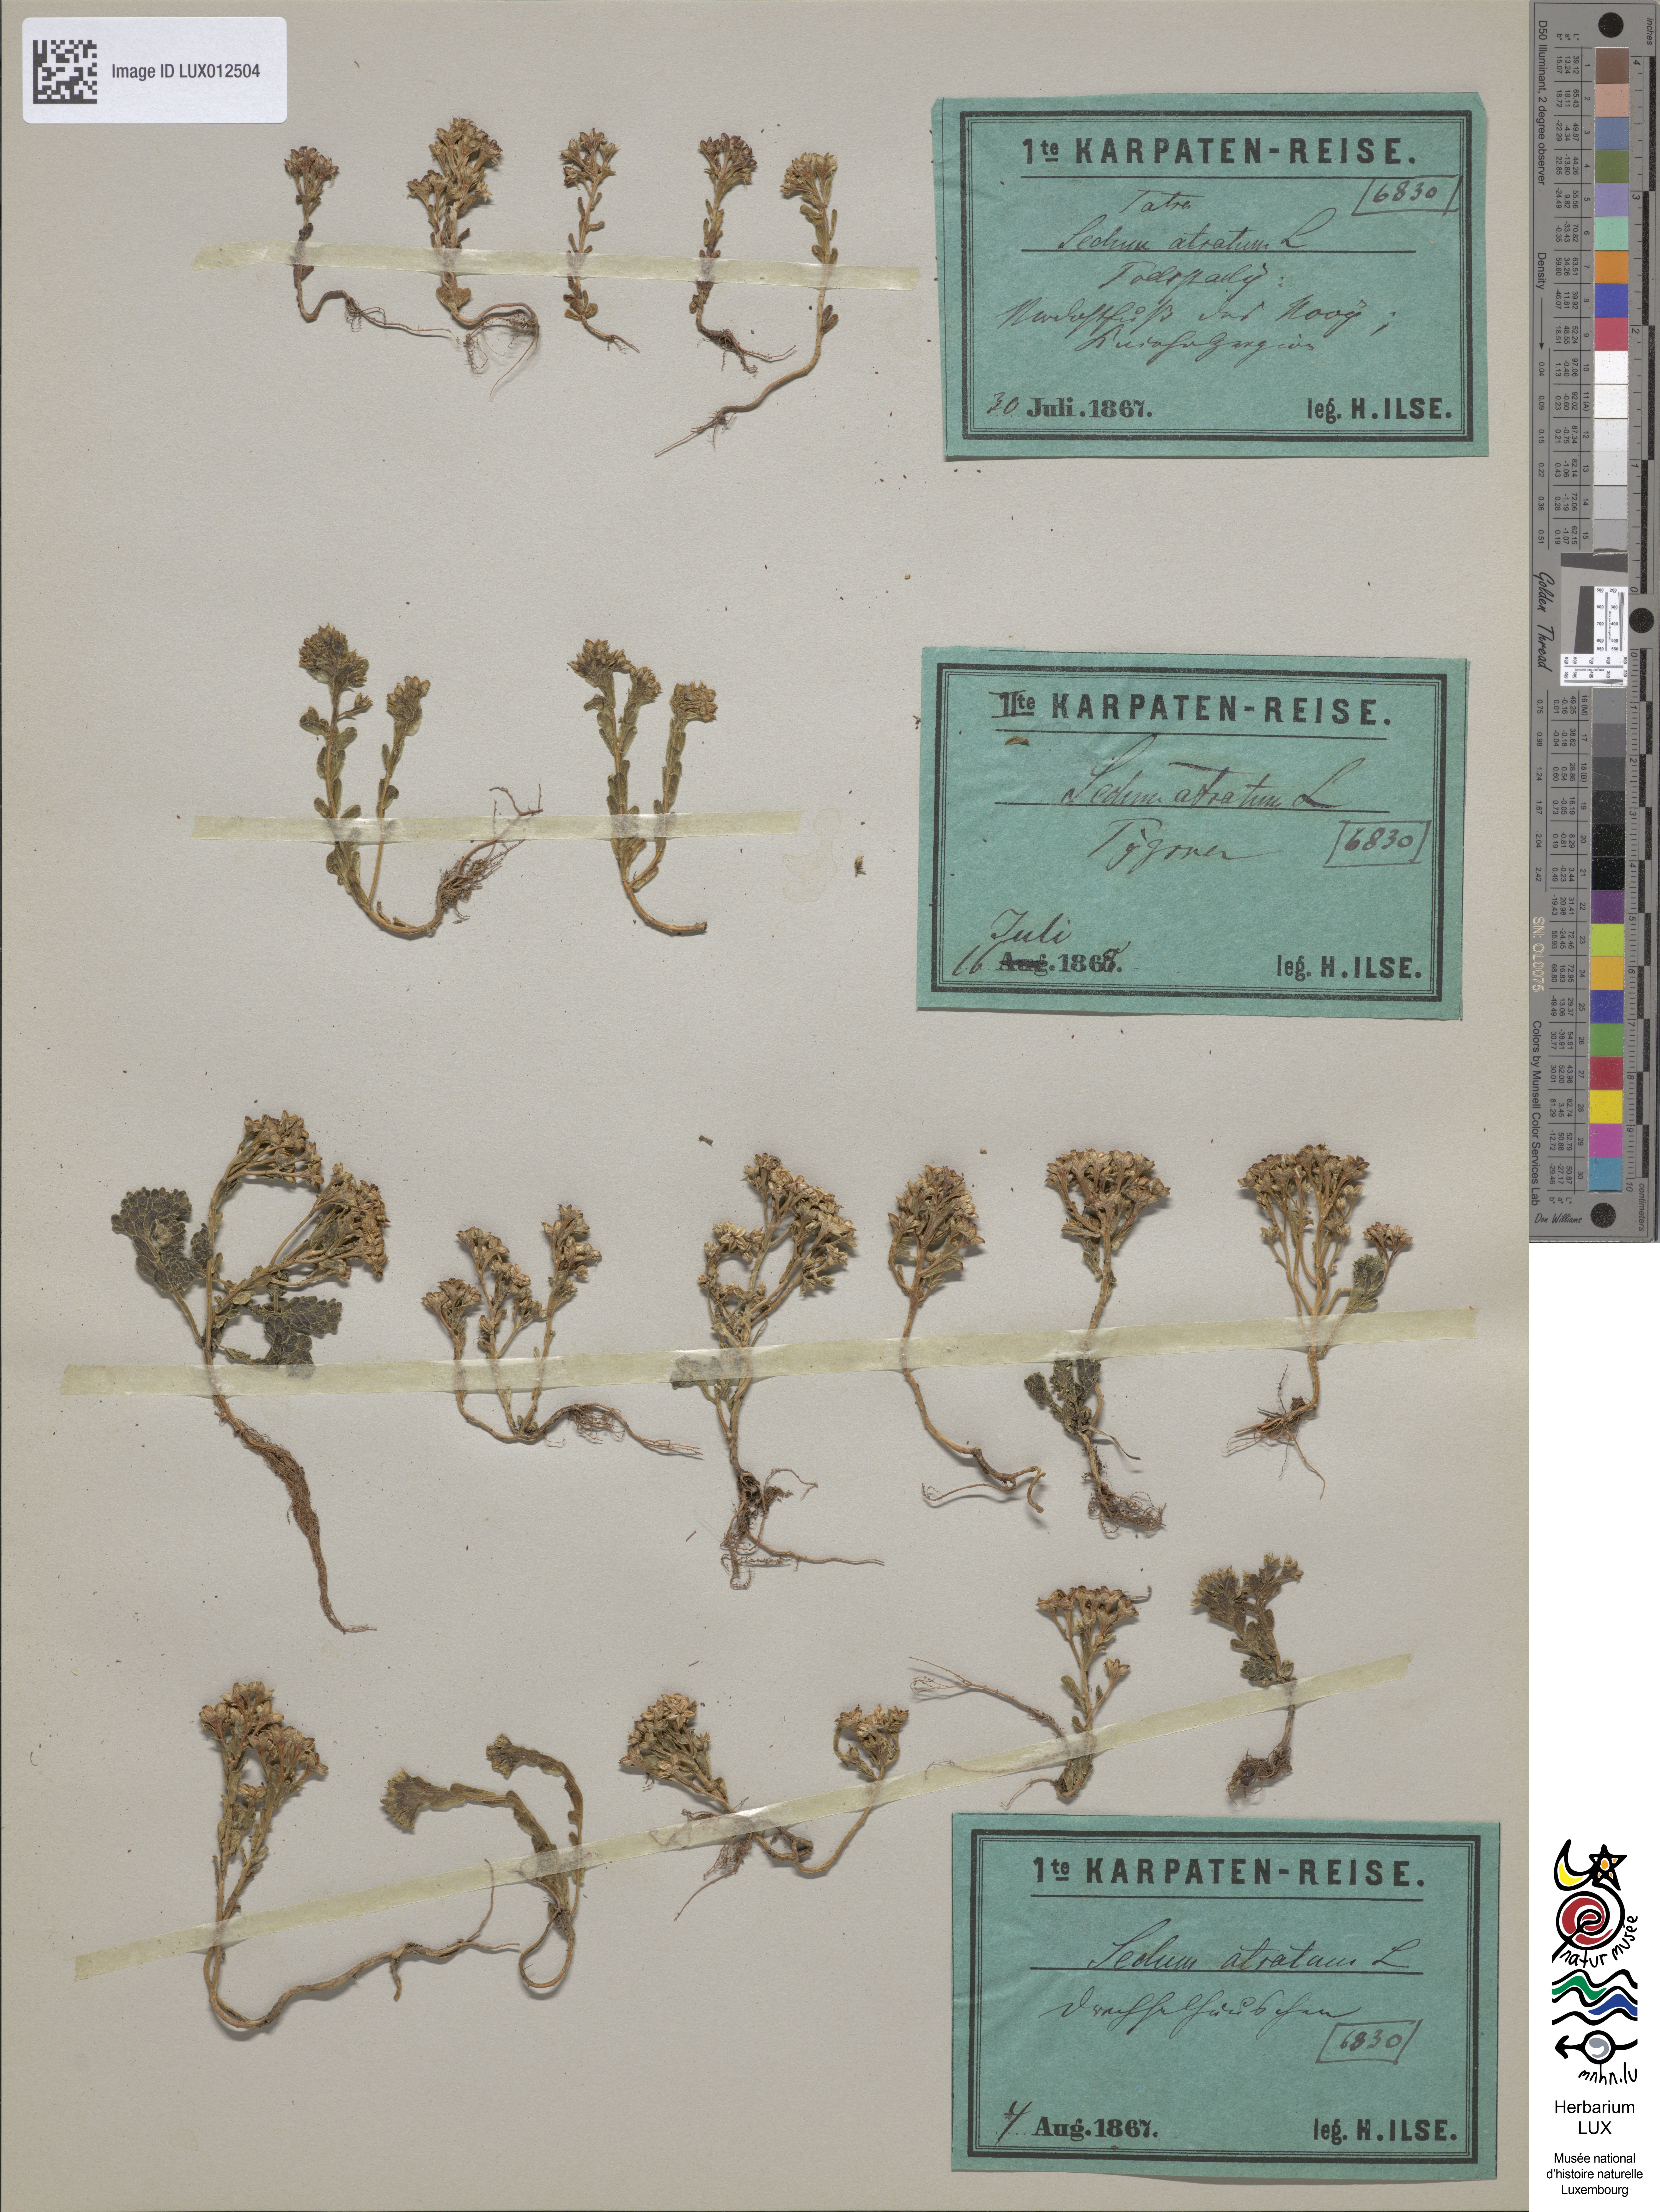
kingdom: Plantae
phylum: Tracheophyta
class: Magnoliopsida
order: Saxifragales
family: Crassulaceae
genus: Sedum
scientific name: Sedum atratum
